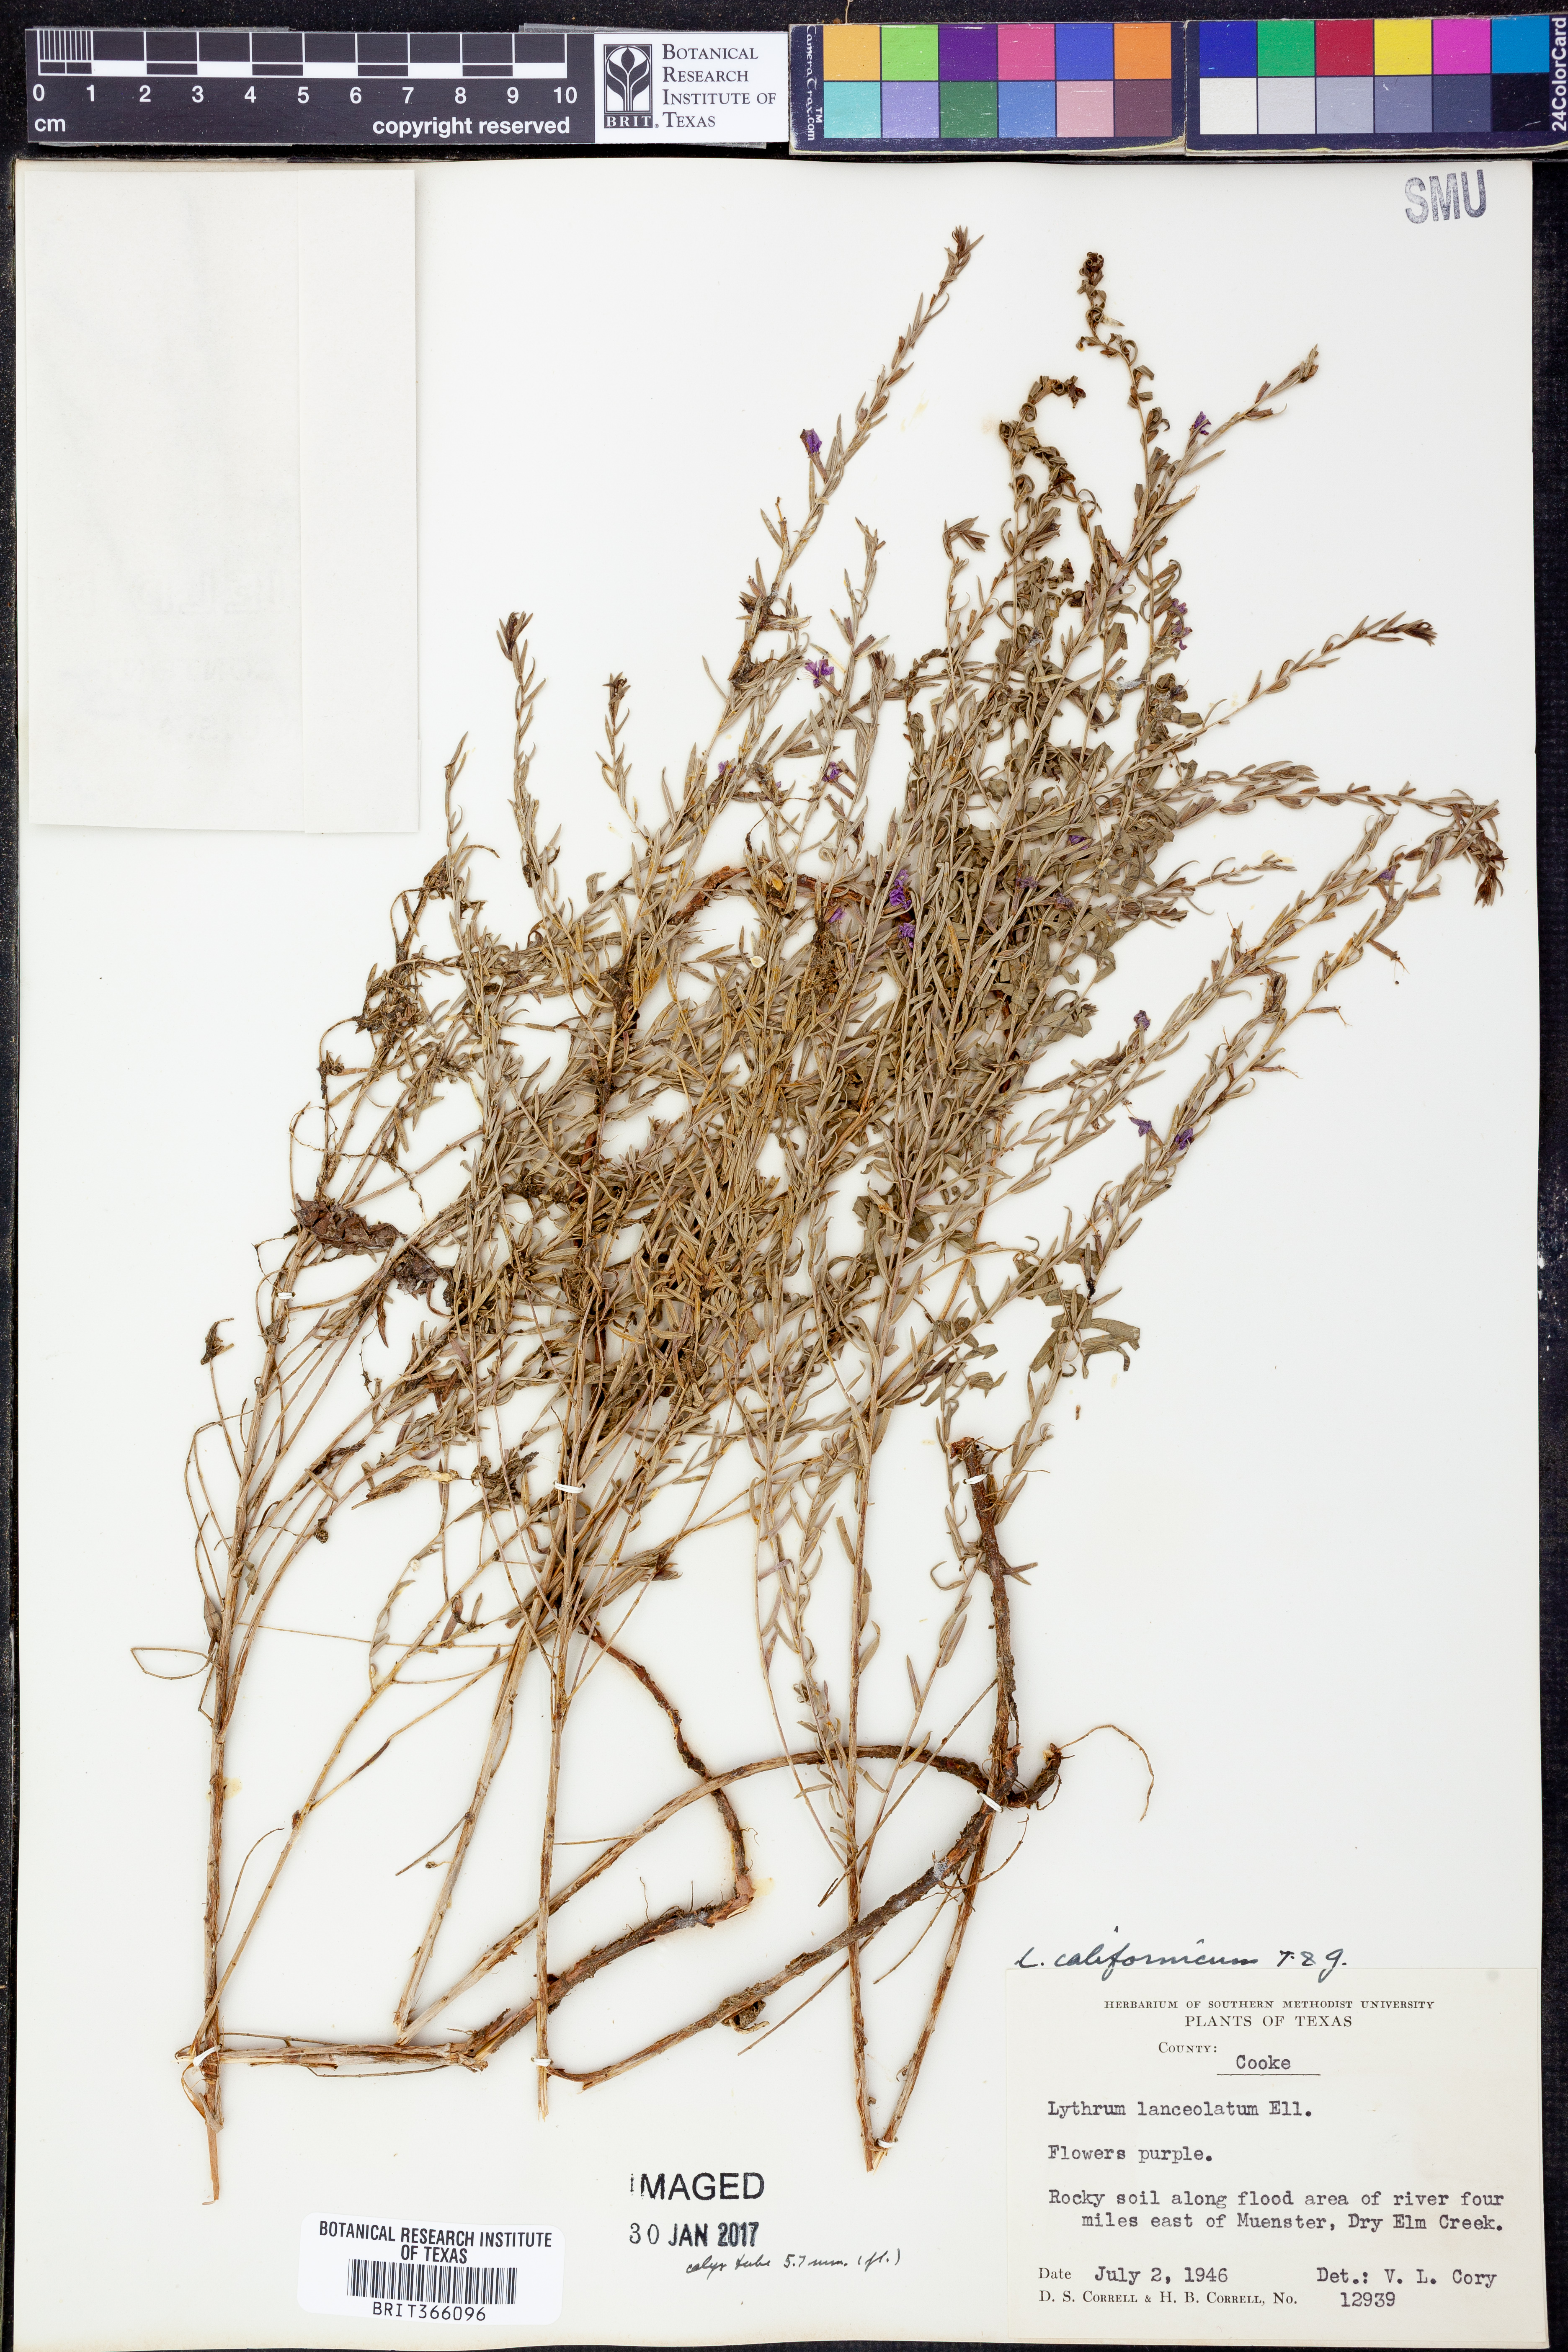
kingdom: Plantae
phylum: Tracheophyta
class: Magnoliopsida
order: Myrtales
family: Lythraceae
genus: Lythrum
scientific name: Lythrum californicum
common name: California loosestrife
